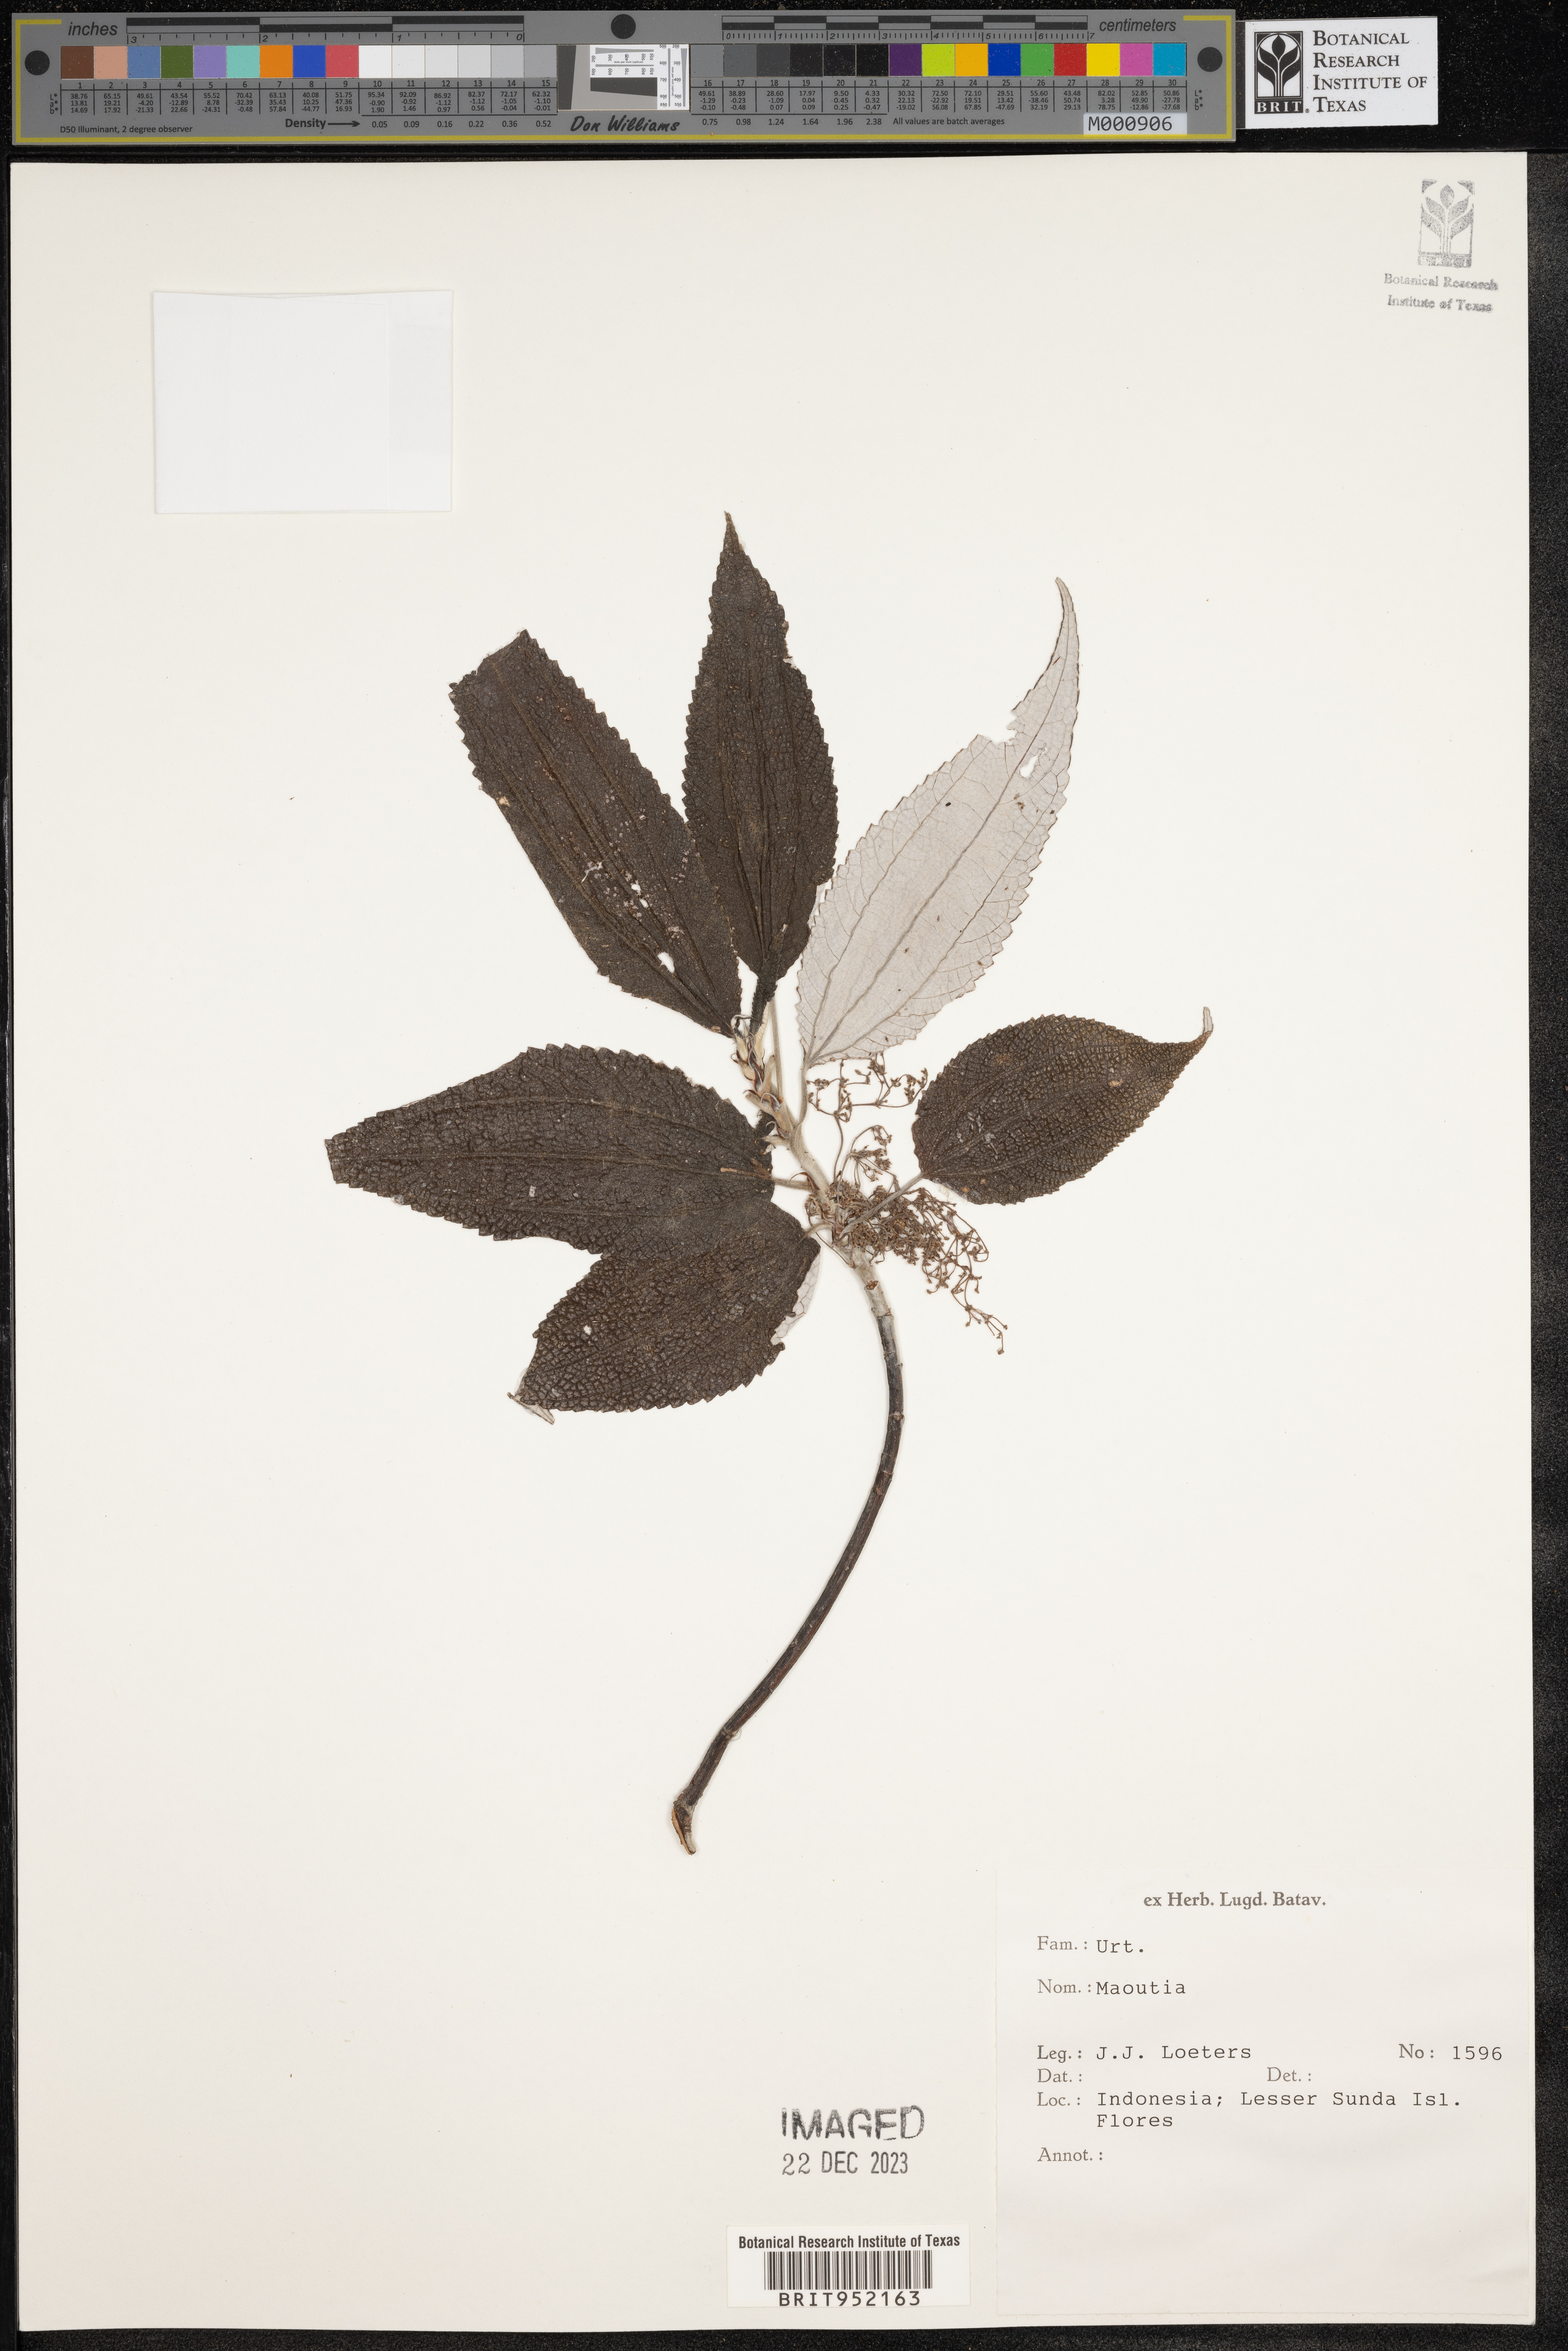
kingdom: Plantae
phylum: Tracheophyta
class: Magnoliopsida
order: Rosales
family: Urticaceae
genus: Maoutia
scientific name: Maoutia
